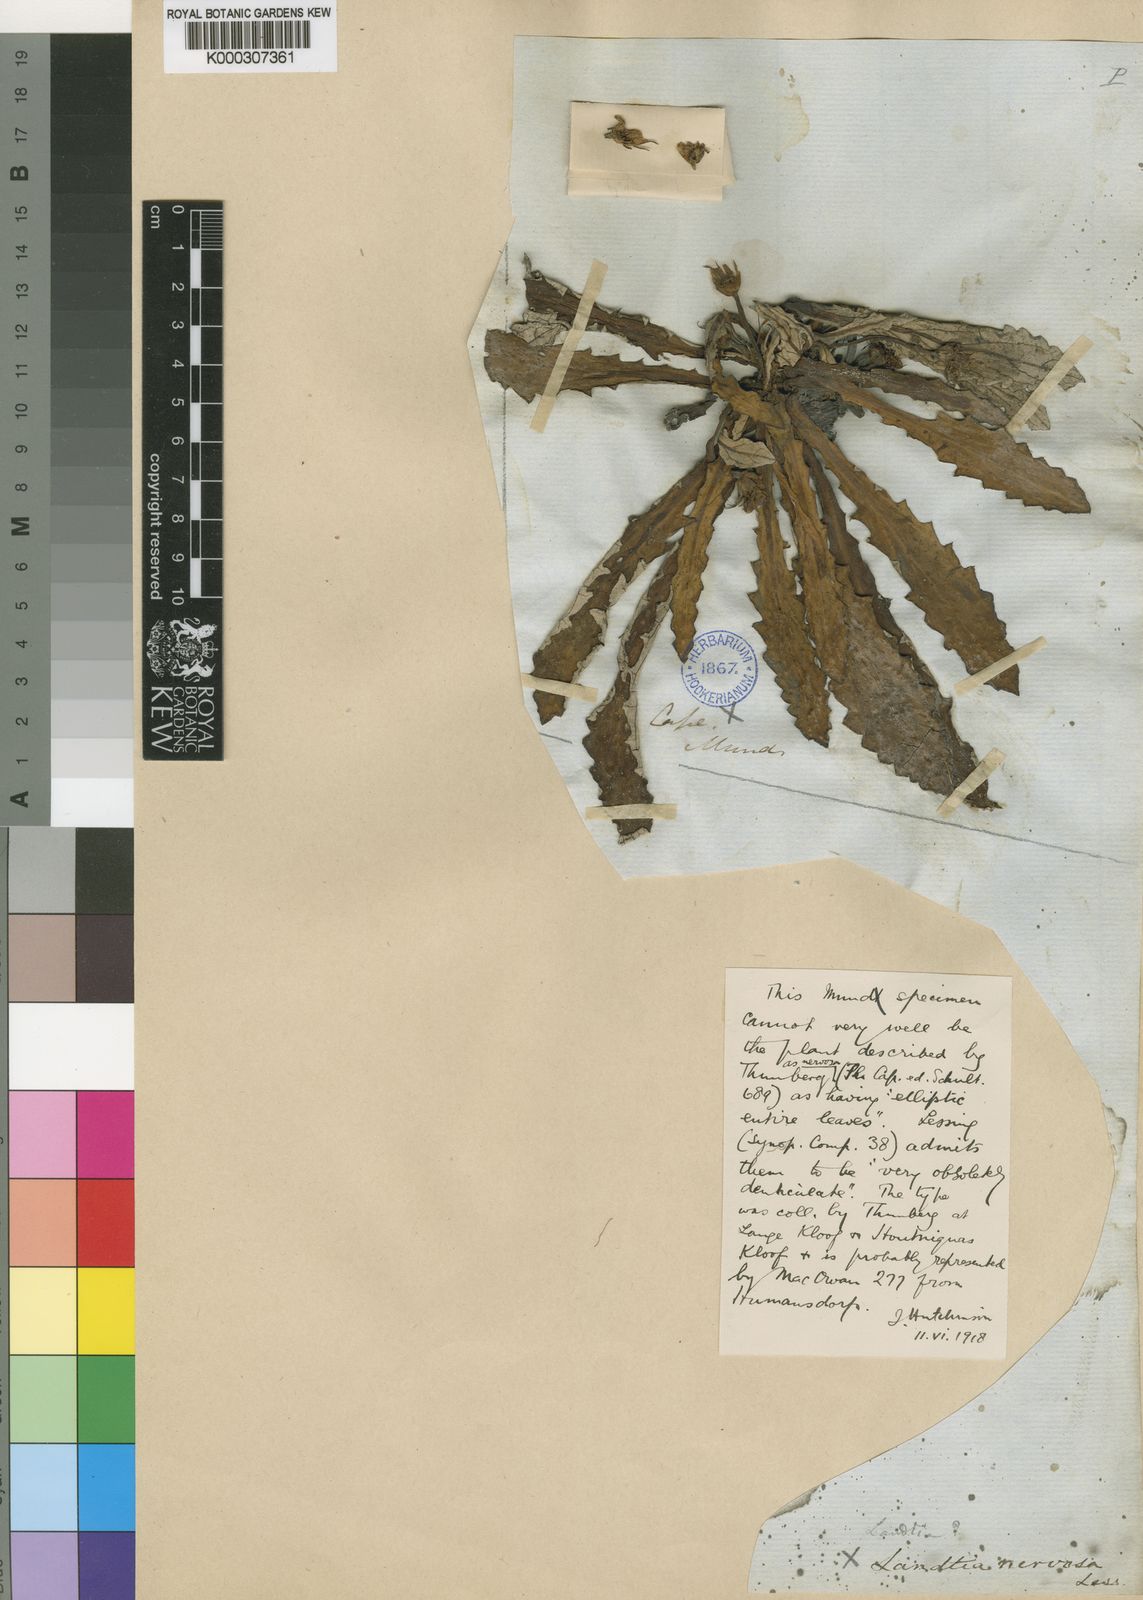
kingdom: Plantae
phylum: Tracheophyta
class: Magnoliopsida
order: Asterales
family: Asteraceae
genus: Haplocarpha
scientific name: Haplocarpha
